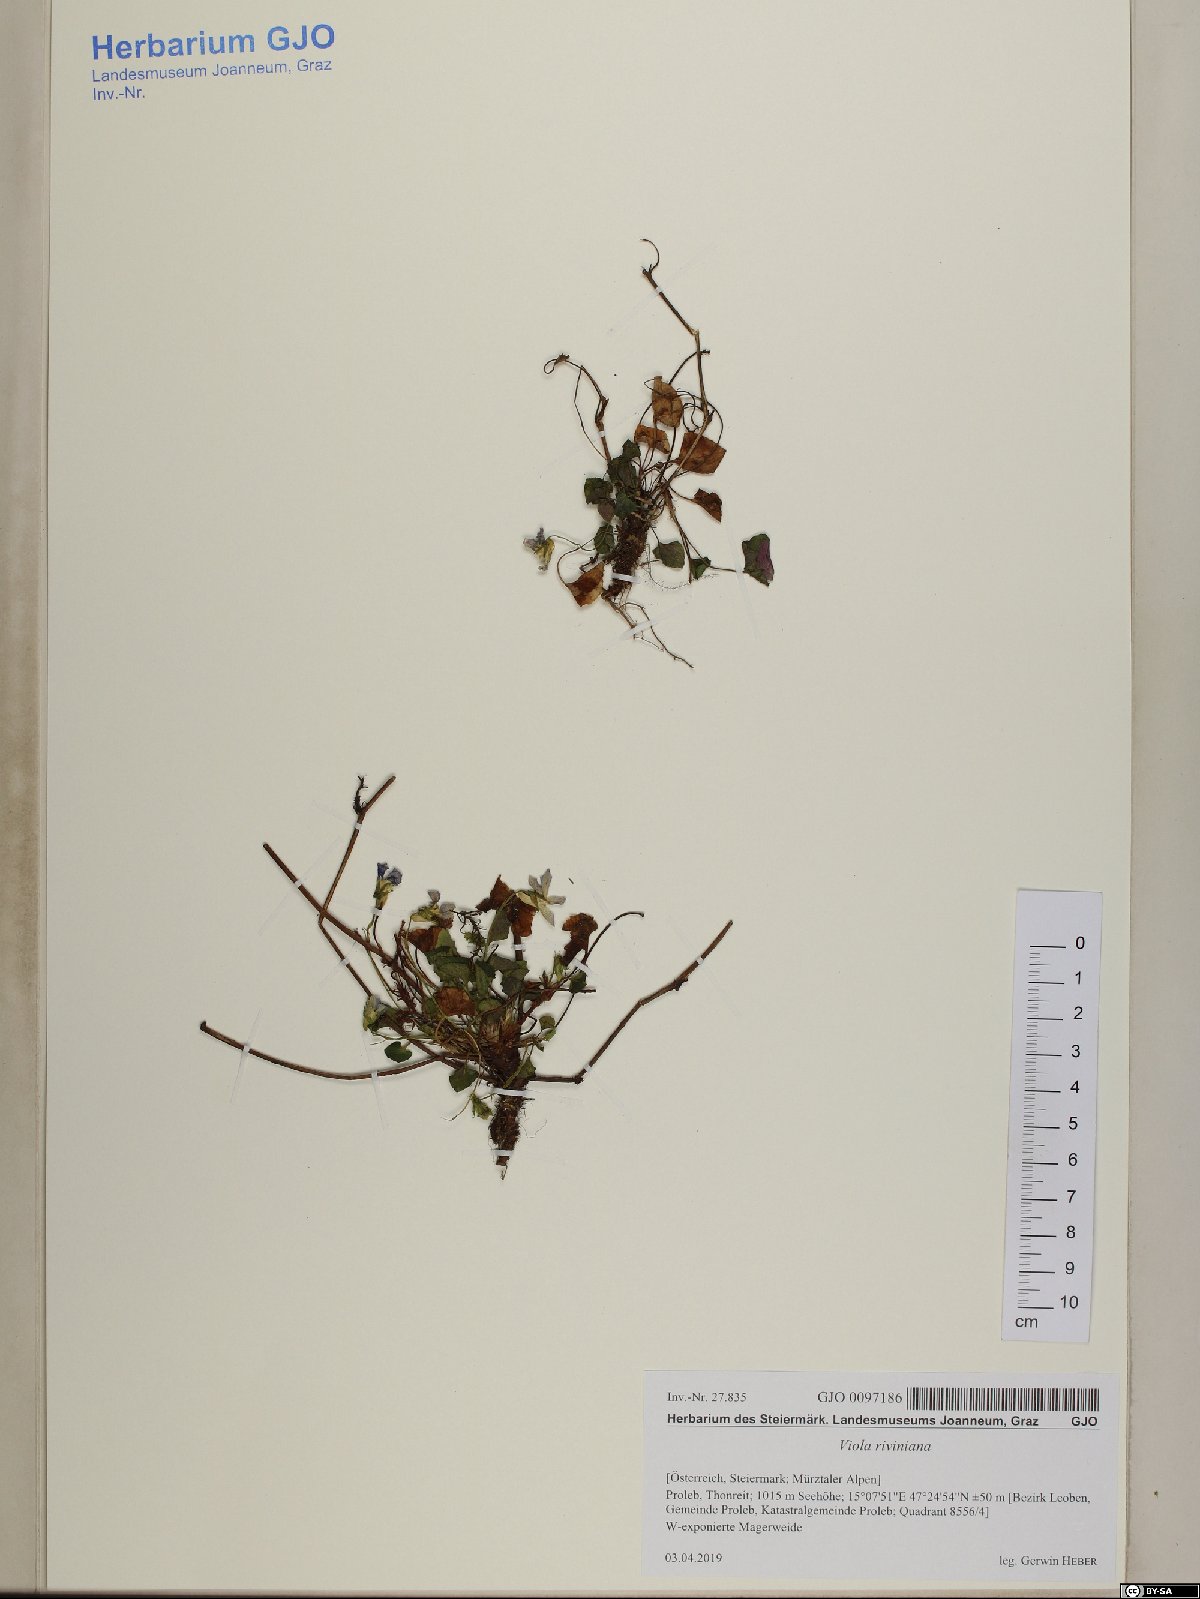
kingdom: Plantae
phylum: Tracheophyta
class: Magnoliopsida
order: Malpighiales
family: Violaceae
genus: Viola
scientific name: Viola riviniana
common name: Common dog-violet
